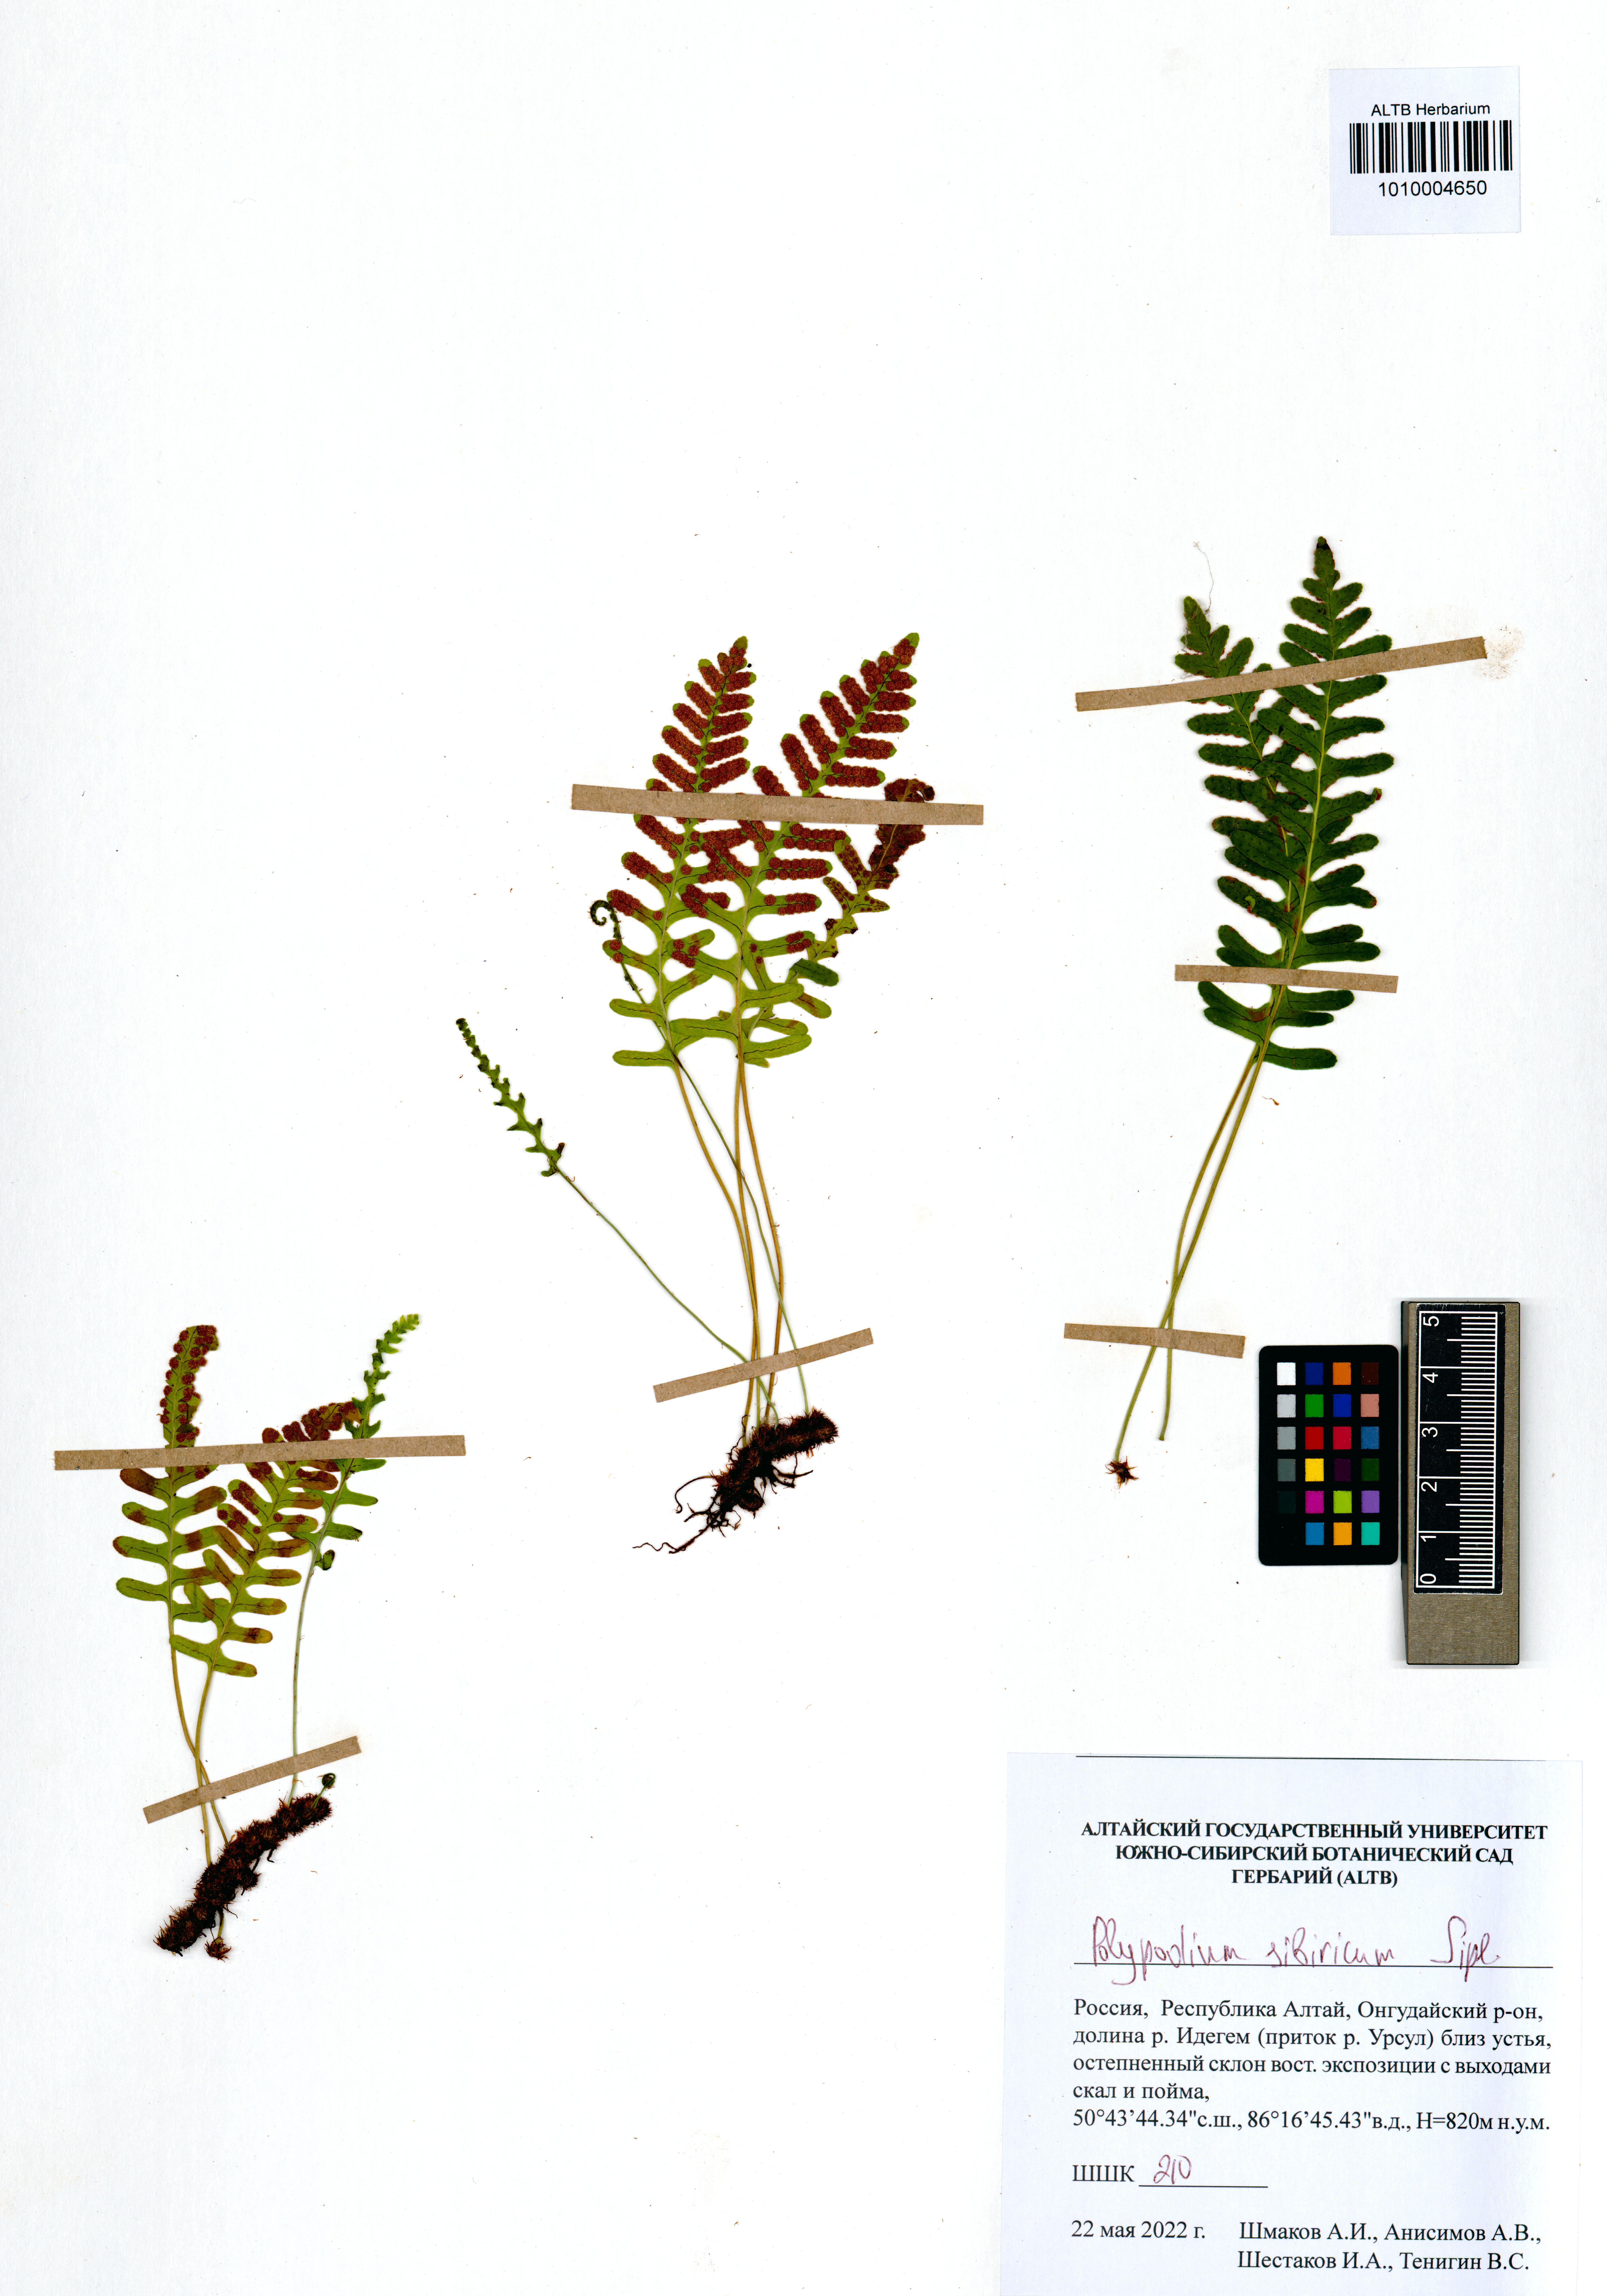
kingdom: Plantae
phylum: Tracheophyta
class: Polypodiopsida
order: Polypodiales
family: Polypodiaceae
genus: Polypodium
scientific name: Polypodium sibiricum
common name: Siberian polypody
